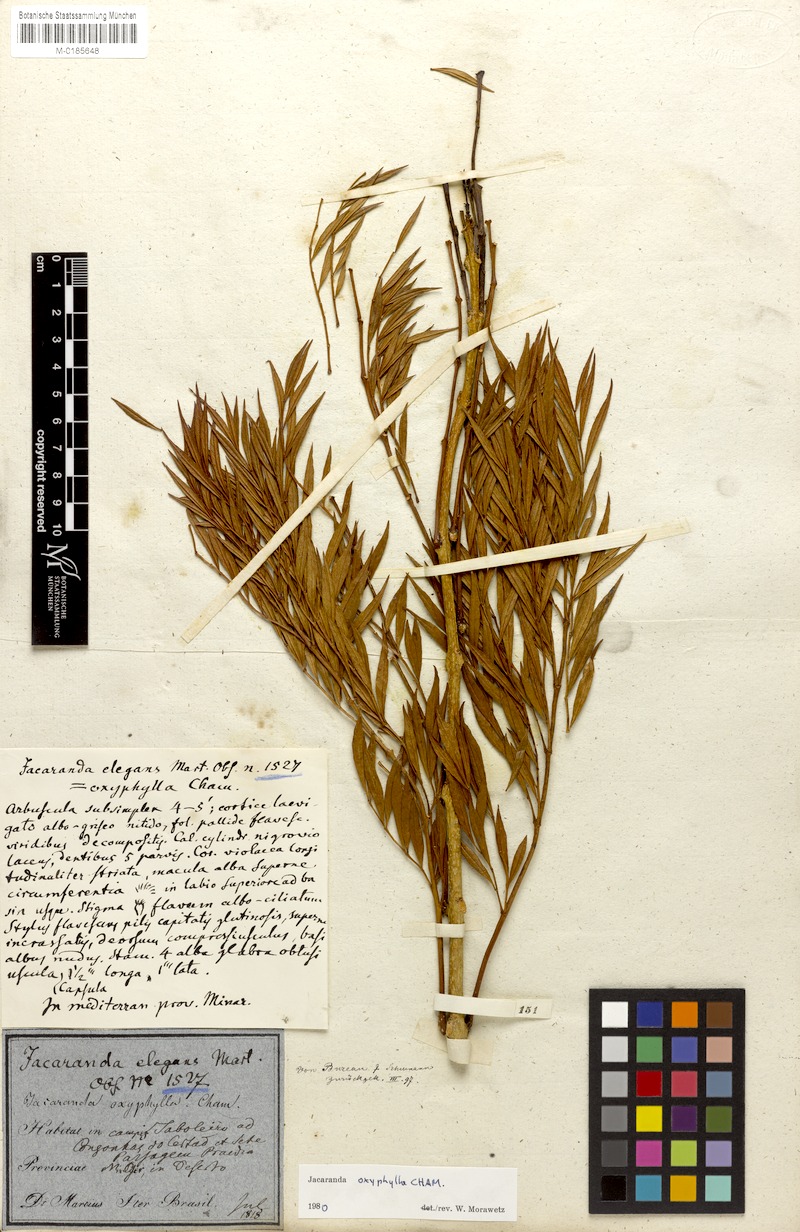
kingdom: Plantae
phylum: Tracheophyta
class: Magnoliopsida
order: Lamiales
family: Bignoniaceae
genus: Jacaranda
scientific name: Jacaranda caroba
